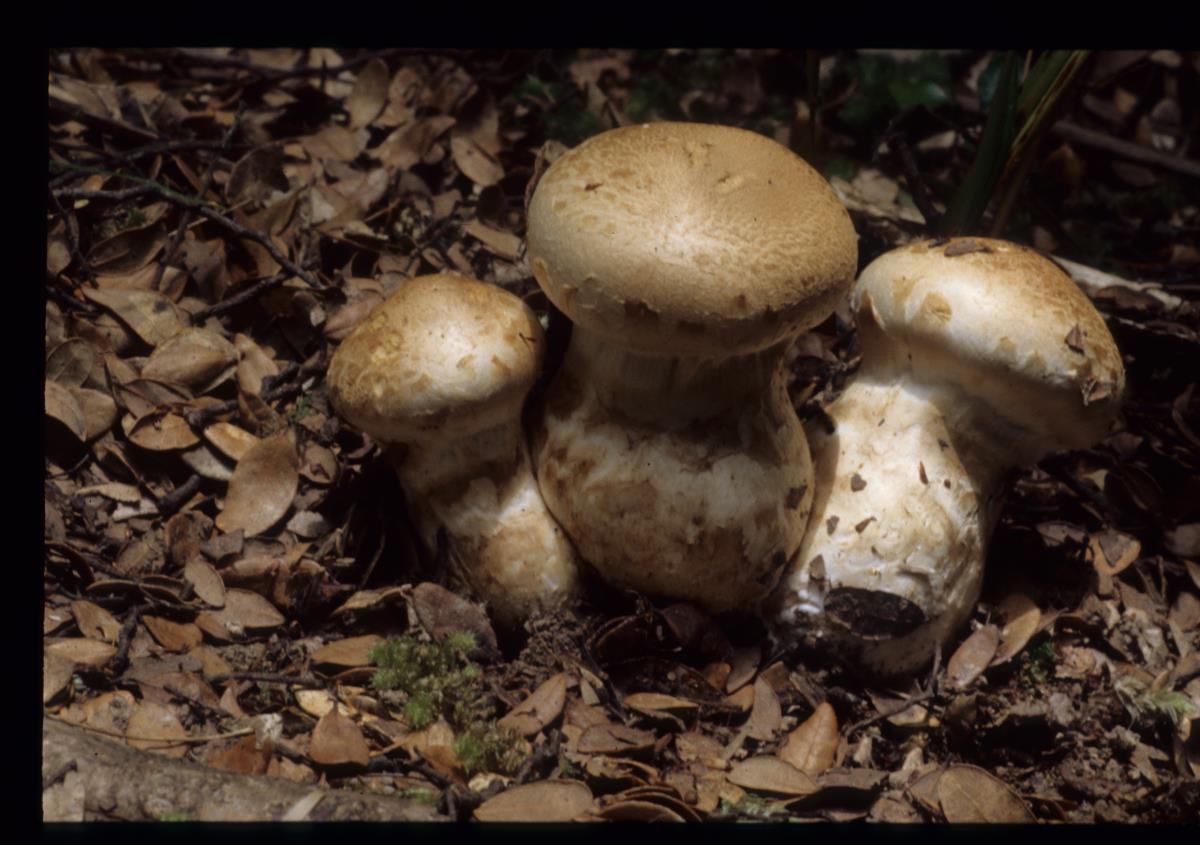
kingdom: Fungi
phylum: Basidiomycota
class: Agaricomycetes
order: Agaricales
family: Cortinariaceae
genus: Austrocortinarius
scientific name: Austrocortinarius australiensis
